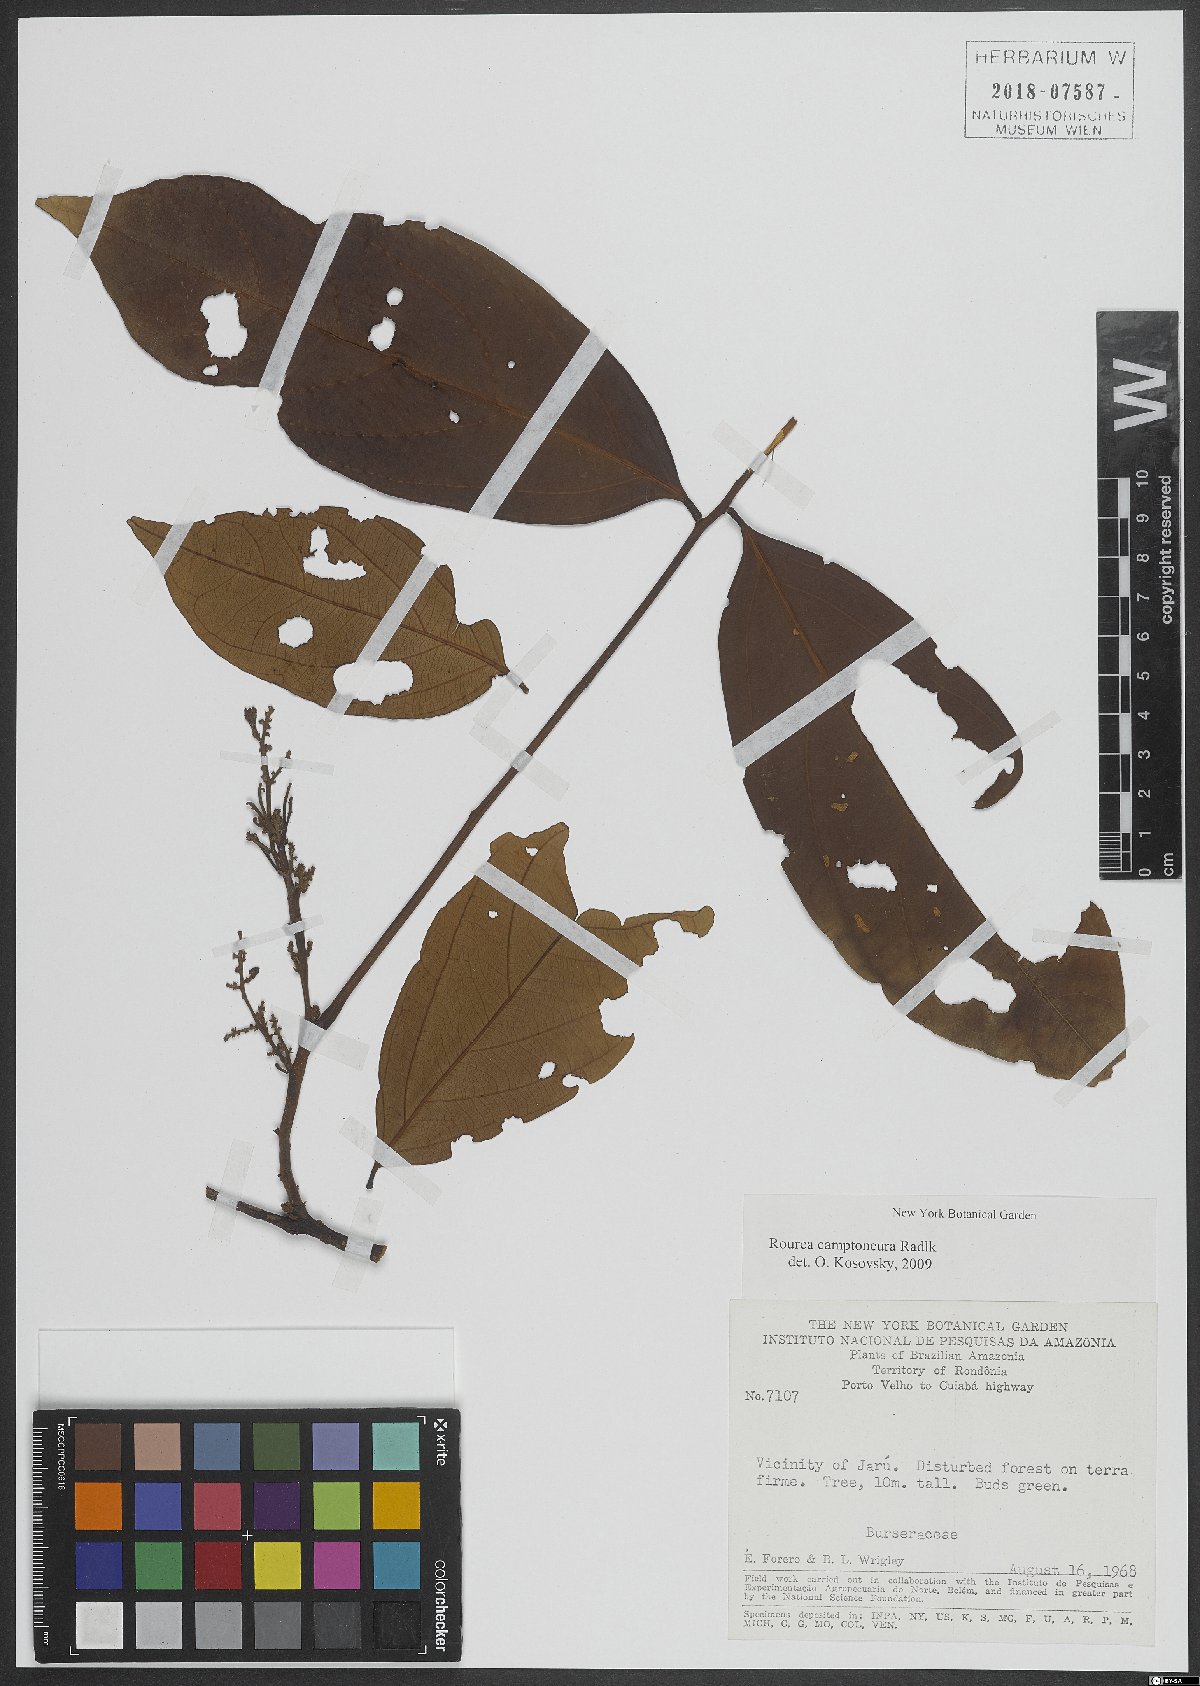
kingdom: Plantae
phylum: Tracheophyta
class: Magnoliopsida
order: Oxalidales
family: Connaraceae
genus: Rourea
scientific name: Rourea camptoneura
